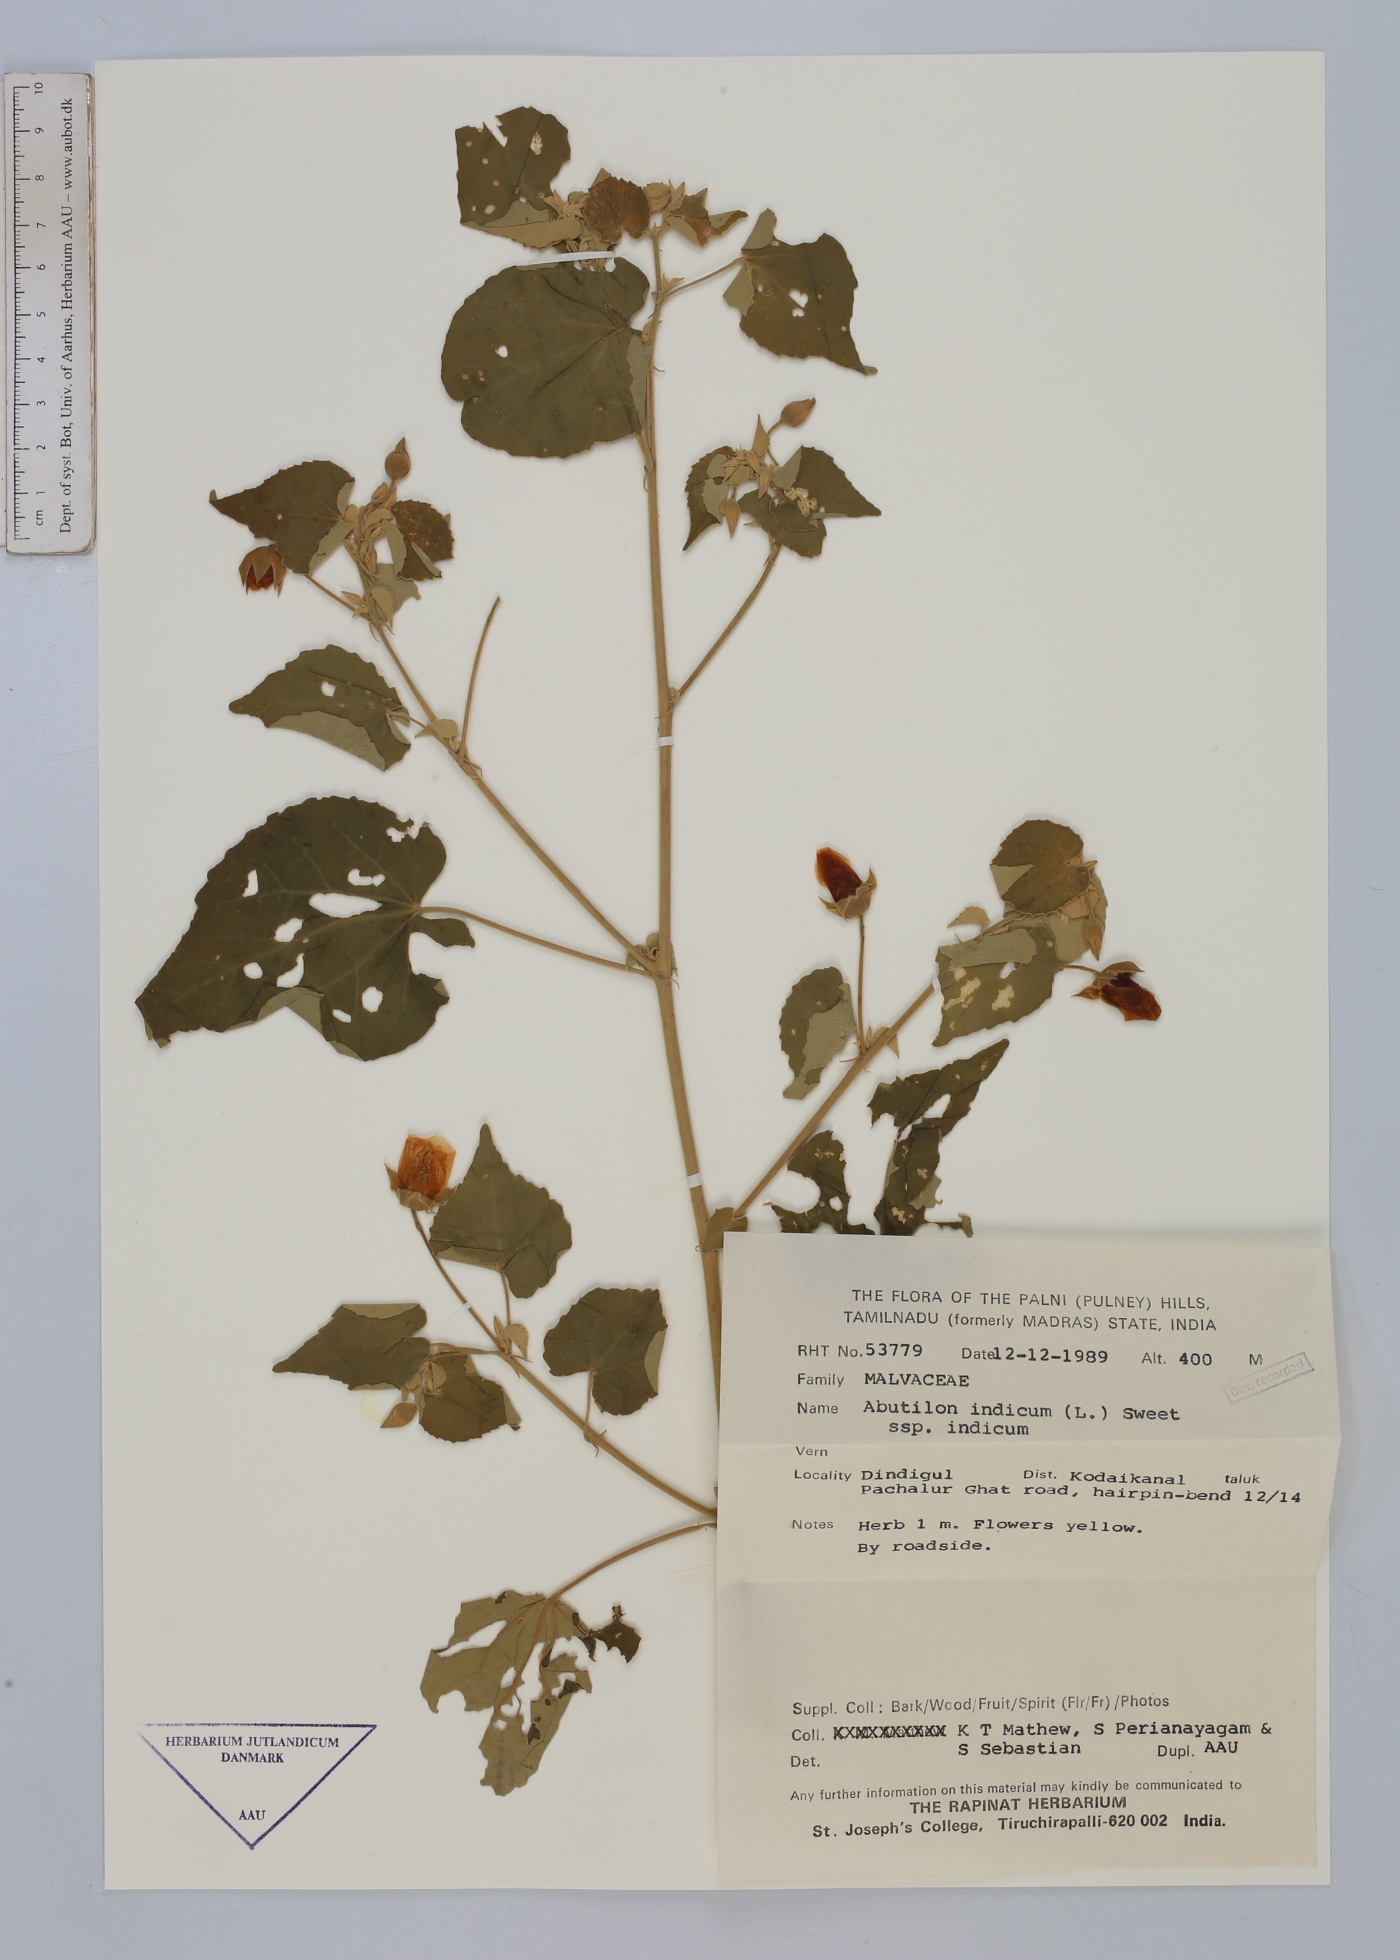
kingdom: Plantae
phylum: Tracheophyta
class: Magnoliopsida
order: Malvales
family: Malvaceae
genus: Abutilon
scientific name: Abutilon indicum
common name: Indian abutilon
